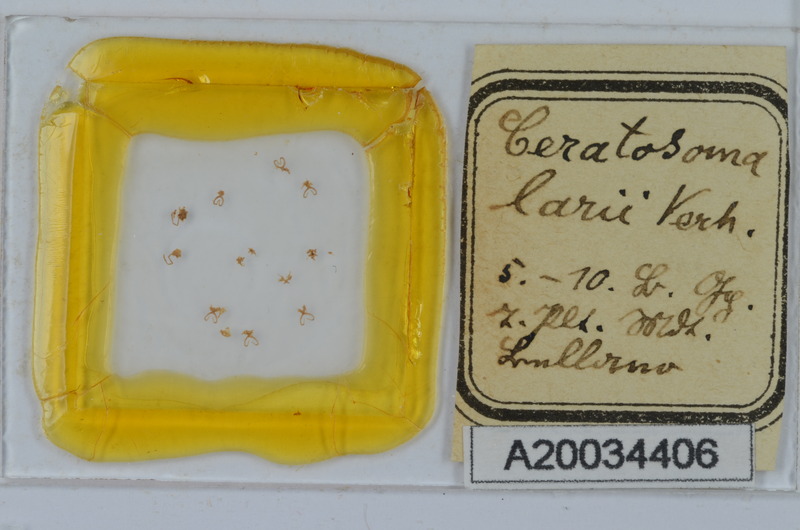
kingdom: Animalia
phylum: Arthropoda
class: Diplopoda
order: Chordeumatida
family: Craspedosomatidae
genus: Bomogona
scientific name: Bomogona lombardica
